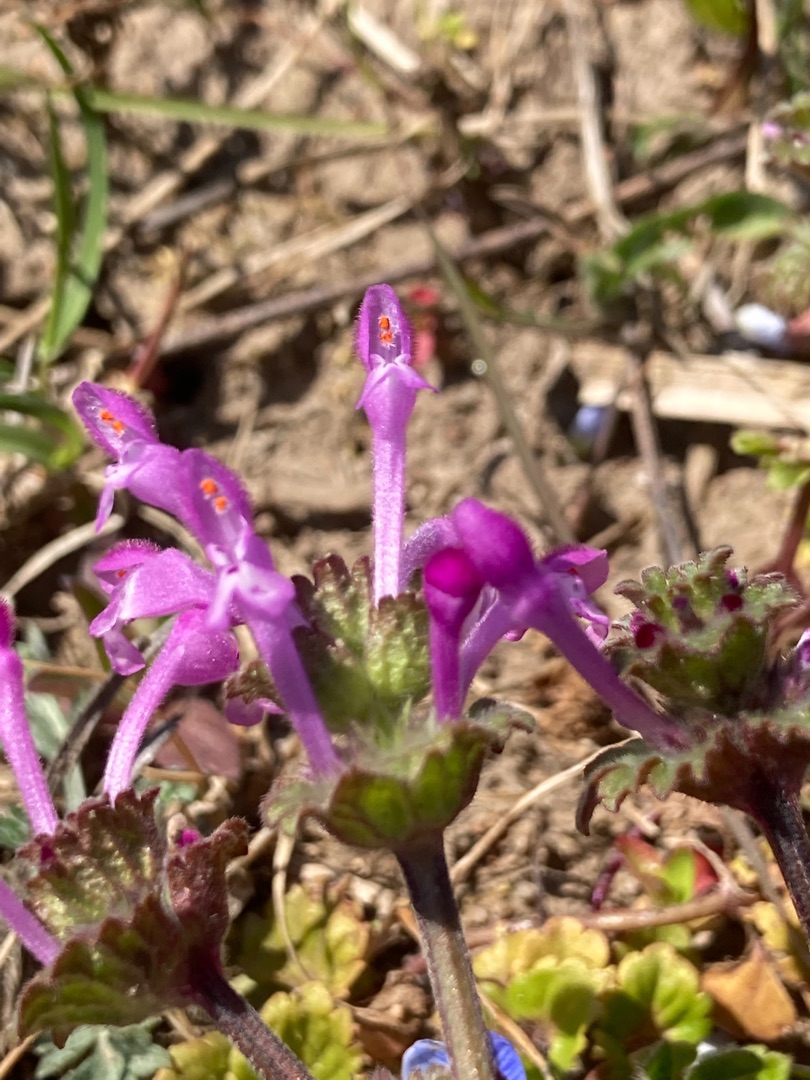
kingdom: Plantae
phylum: Tracheophyta
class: Magnoliopsida
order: Lamiales
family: Lamiaceae
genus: Lamium
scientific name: Lamium amplexicaule
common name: Liden tvetand
